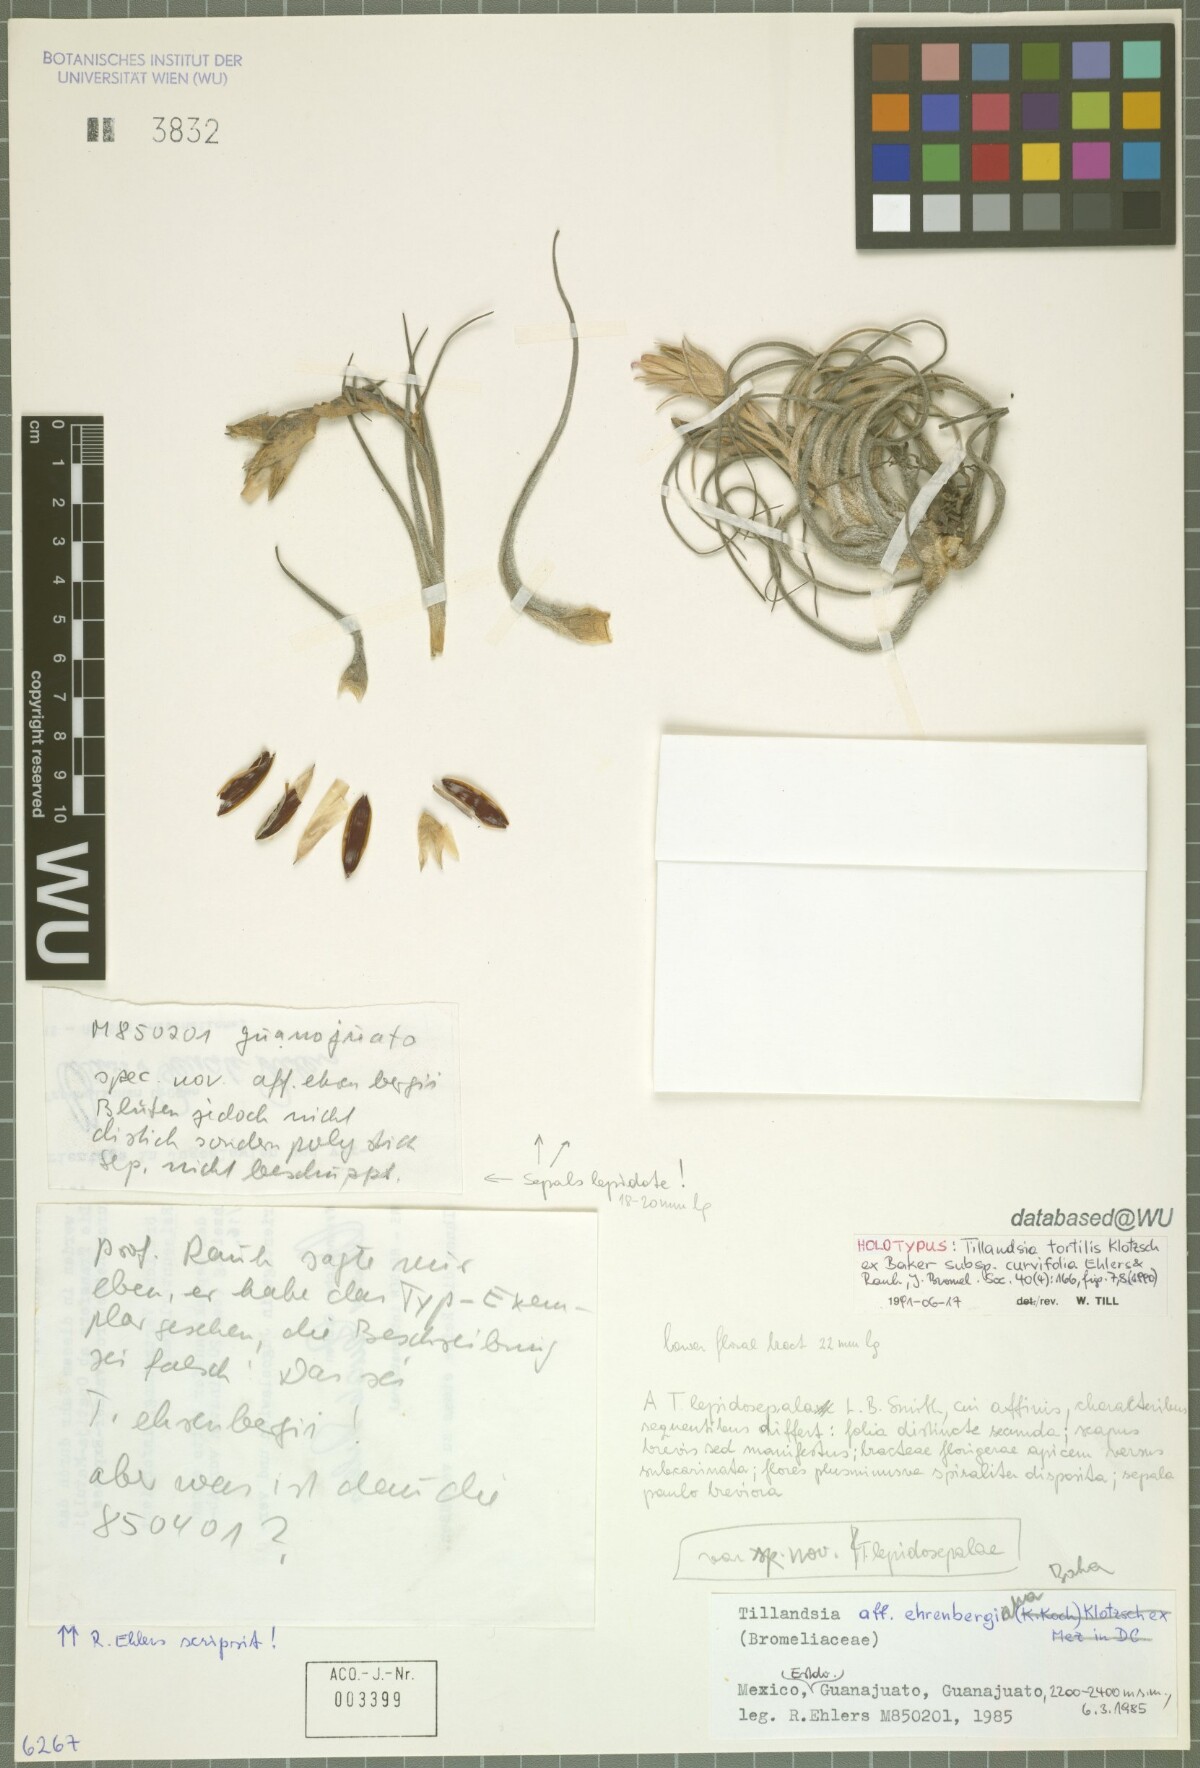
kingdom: Plantae
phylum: Tracheophyta
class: Liliopsida
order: Poales
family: Bromeliaceae
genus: Tillandsia
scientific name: Tillandsia curvifolia
